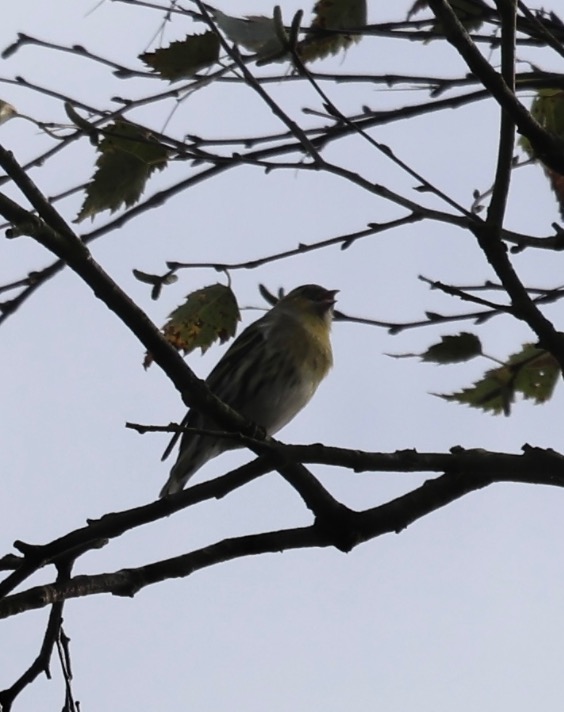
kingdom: Animalia
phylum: Chordata
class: Aves
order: Passeriformes
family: Fringillidae
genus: Spinus
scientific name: Spinus spinus
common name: Grønsisken
